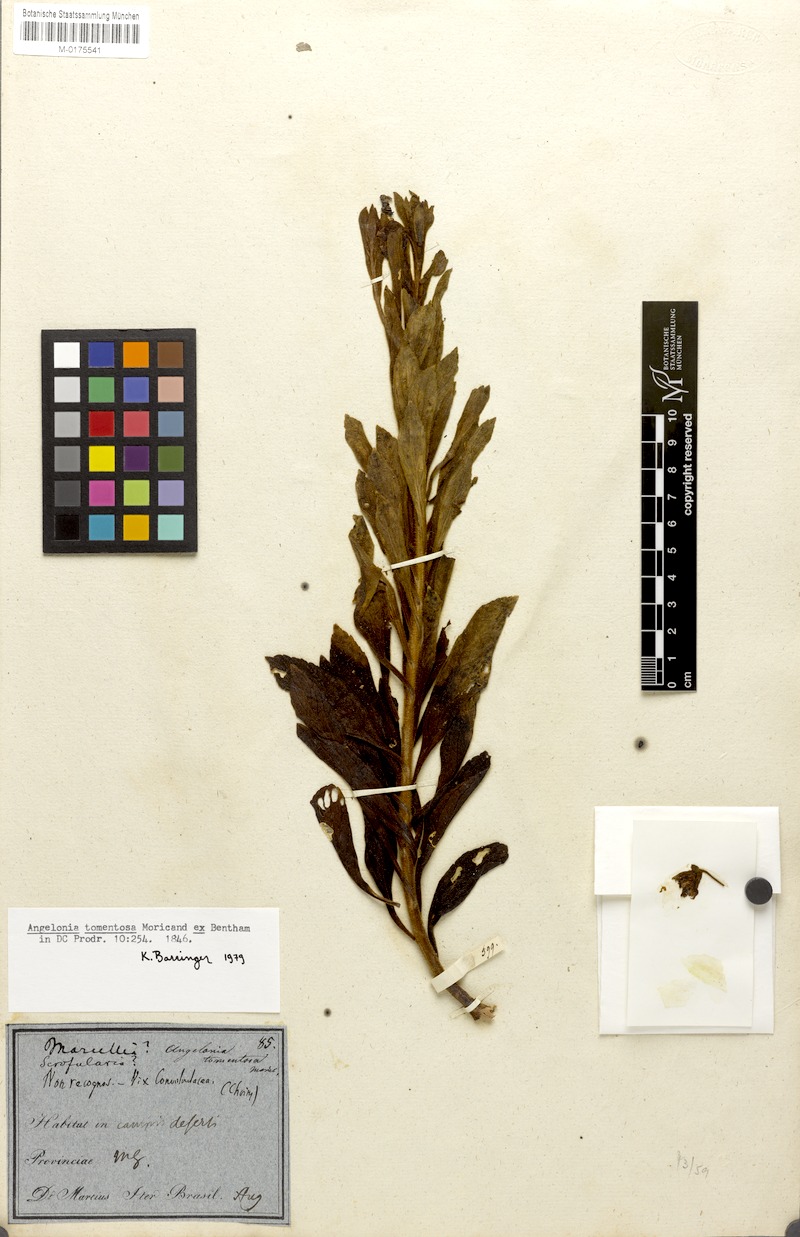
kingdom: Plantae
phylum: Tracheophyta
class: Magnoliopsida
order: Lamiales
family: Plantaginaceae
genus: Angelonia
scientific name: Angelonia tomentosa
